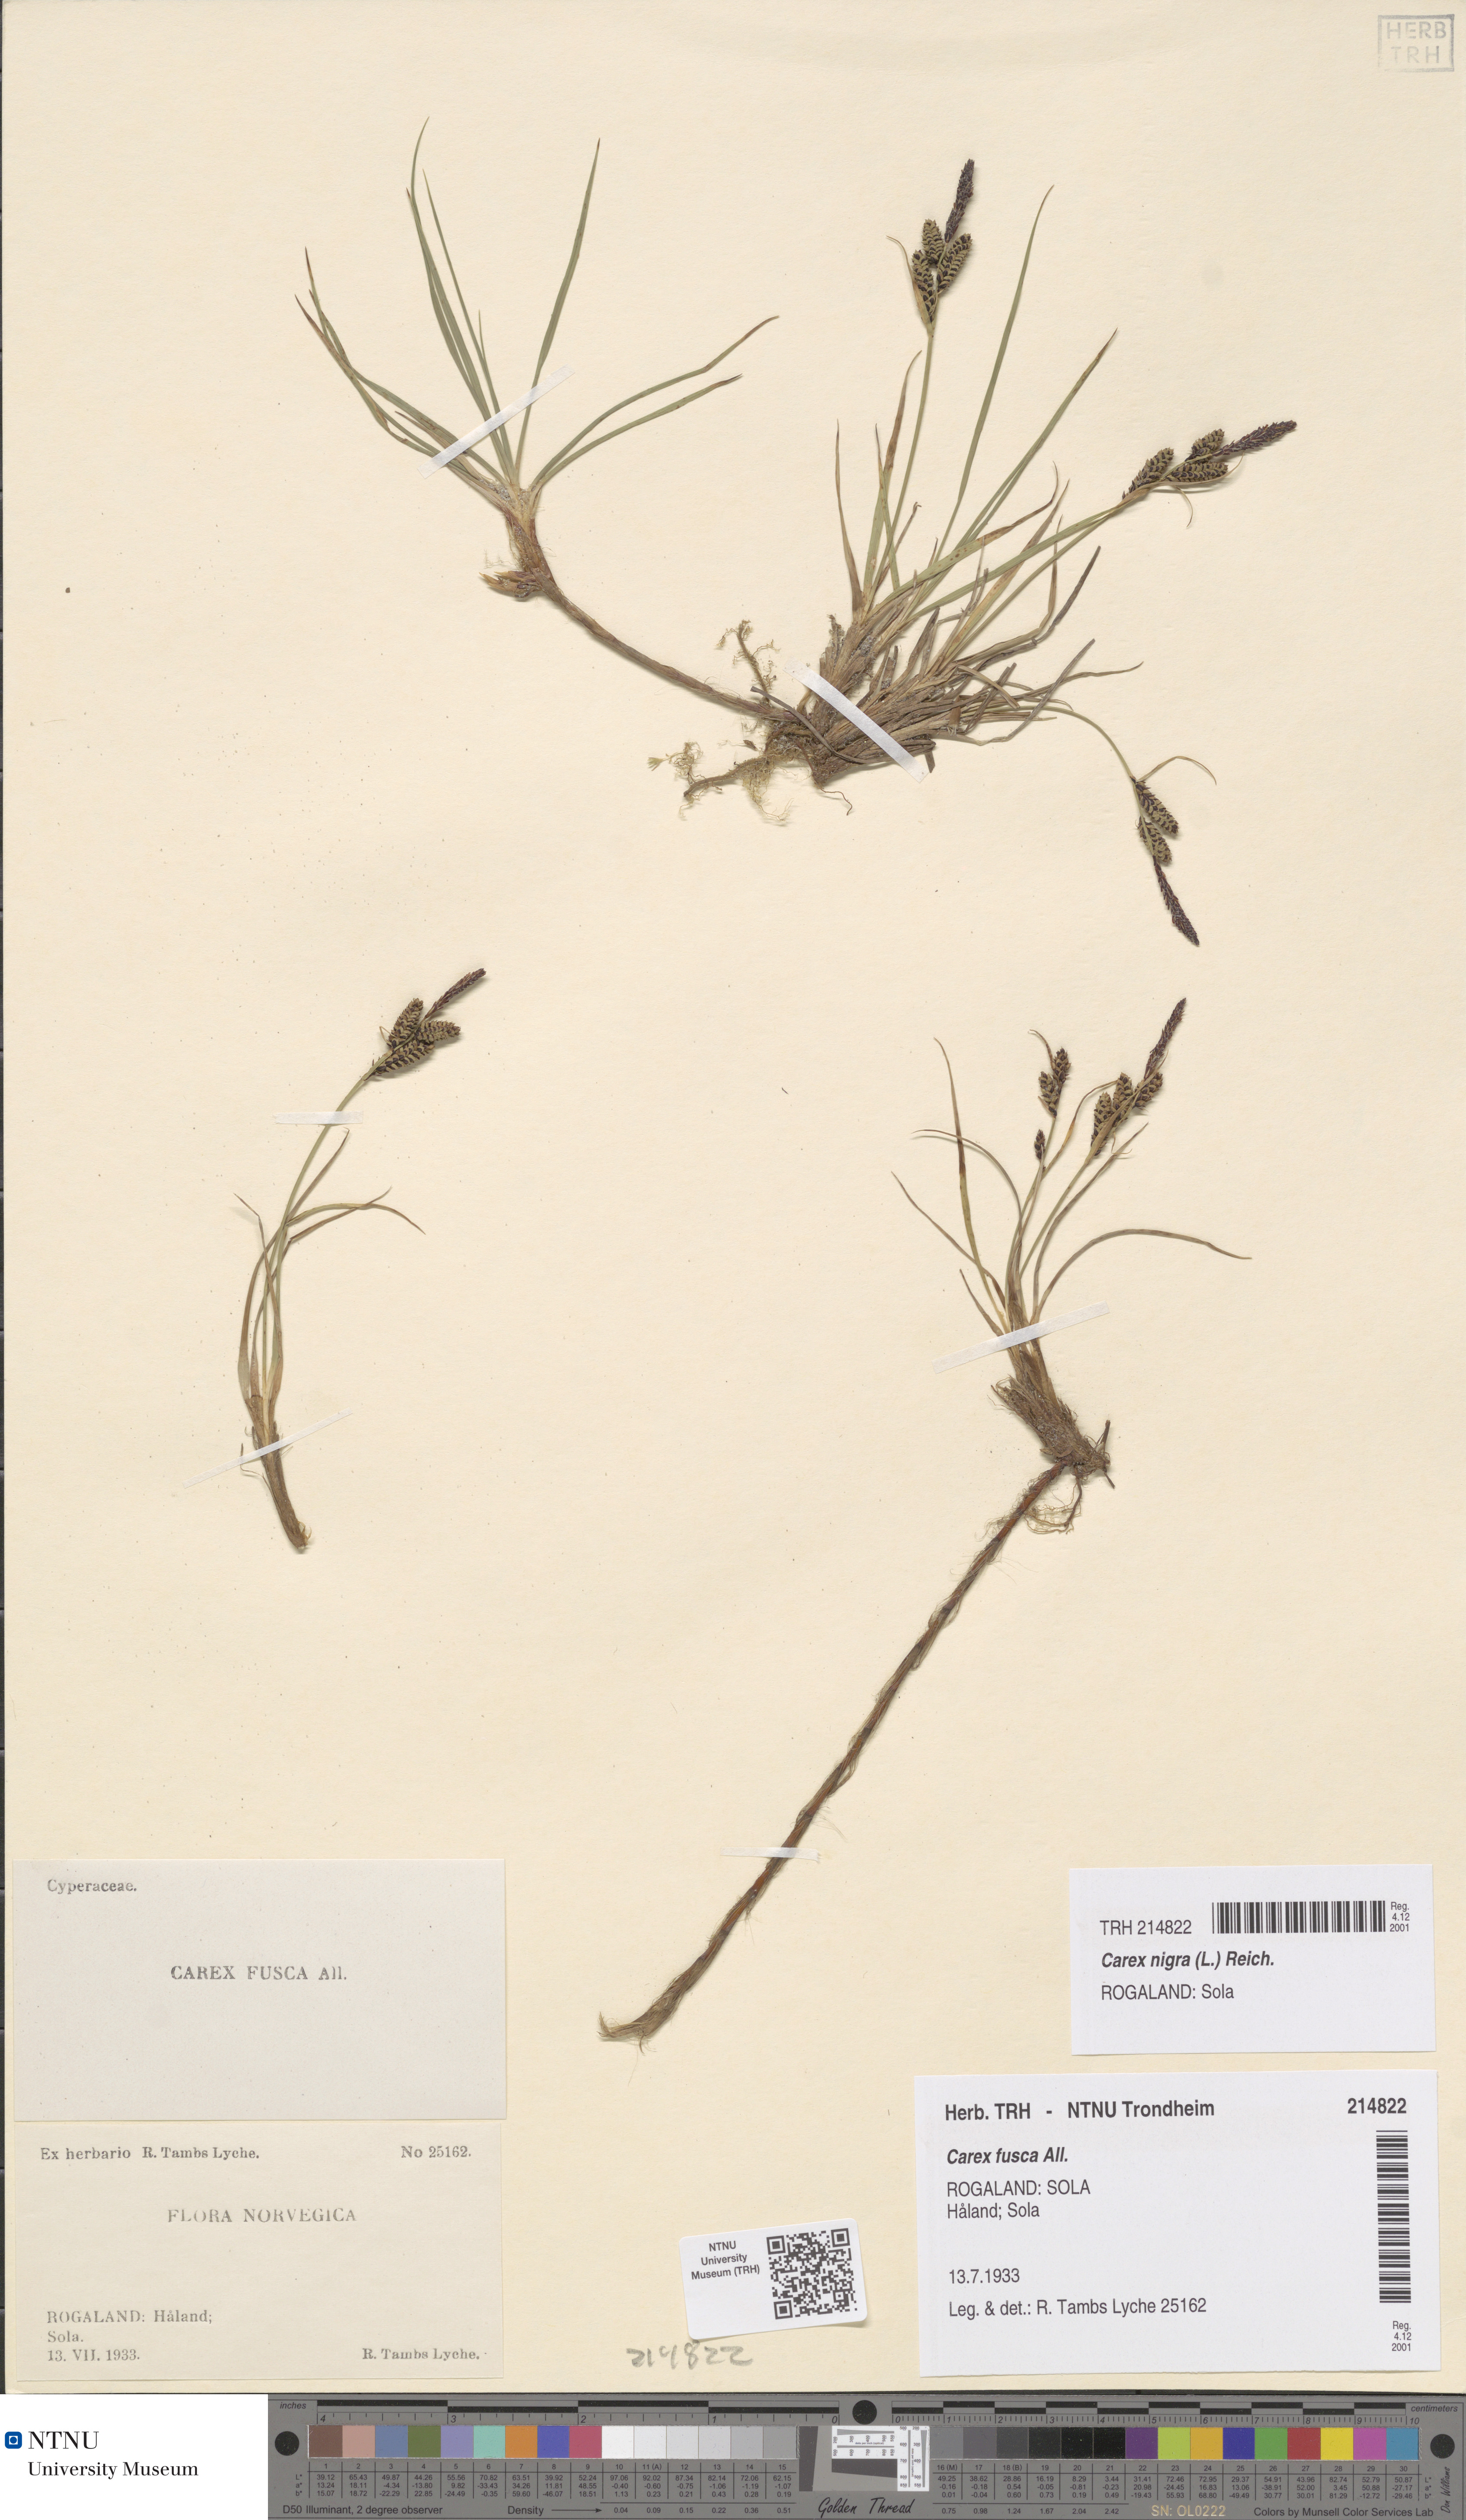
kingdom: Plantae
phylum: Tracheophyta
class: Liliopsida
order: Poales
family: Cyperaceae
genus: Carex
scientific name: Carex nigra
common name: Common sedge
